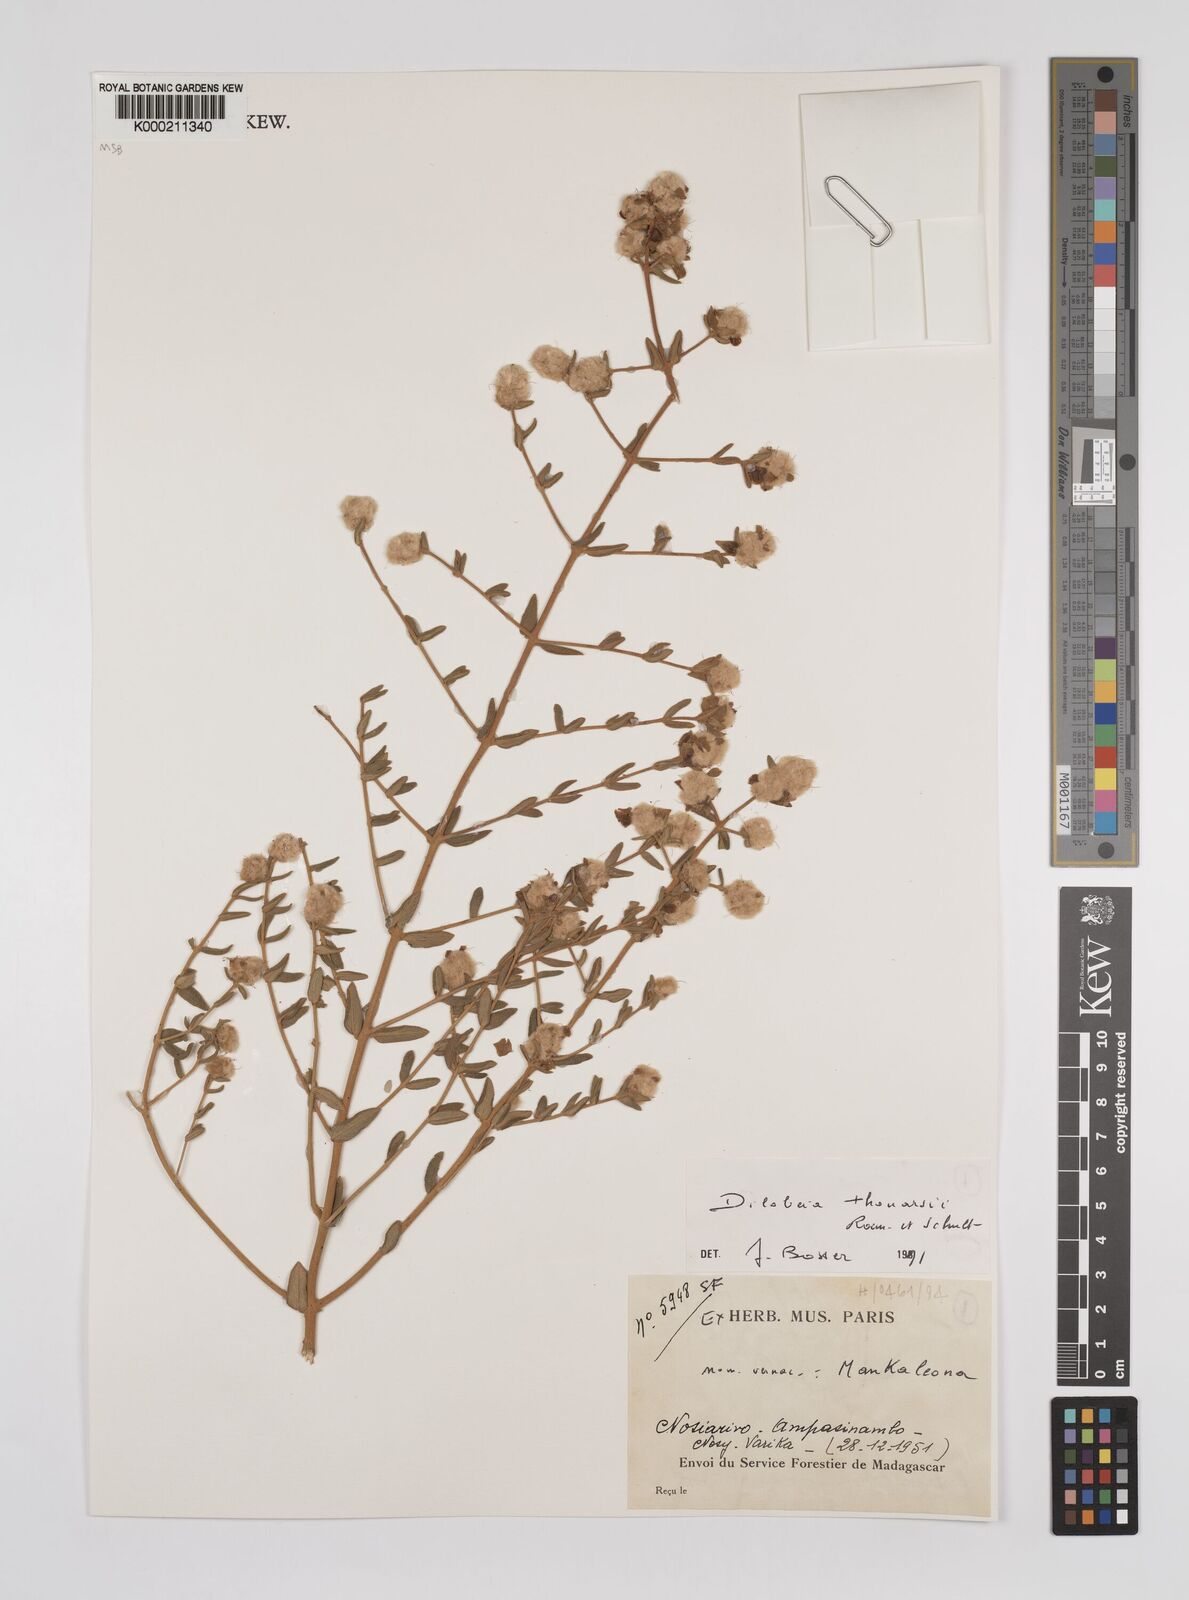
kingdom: Plantae
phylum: Tracheophyta
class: Magnoliopsida
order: Proteales
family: Proteaceae
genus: Dilobeia
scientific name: Dilobeia thouarsii
